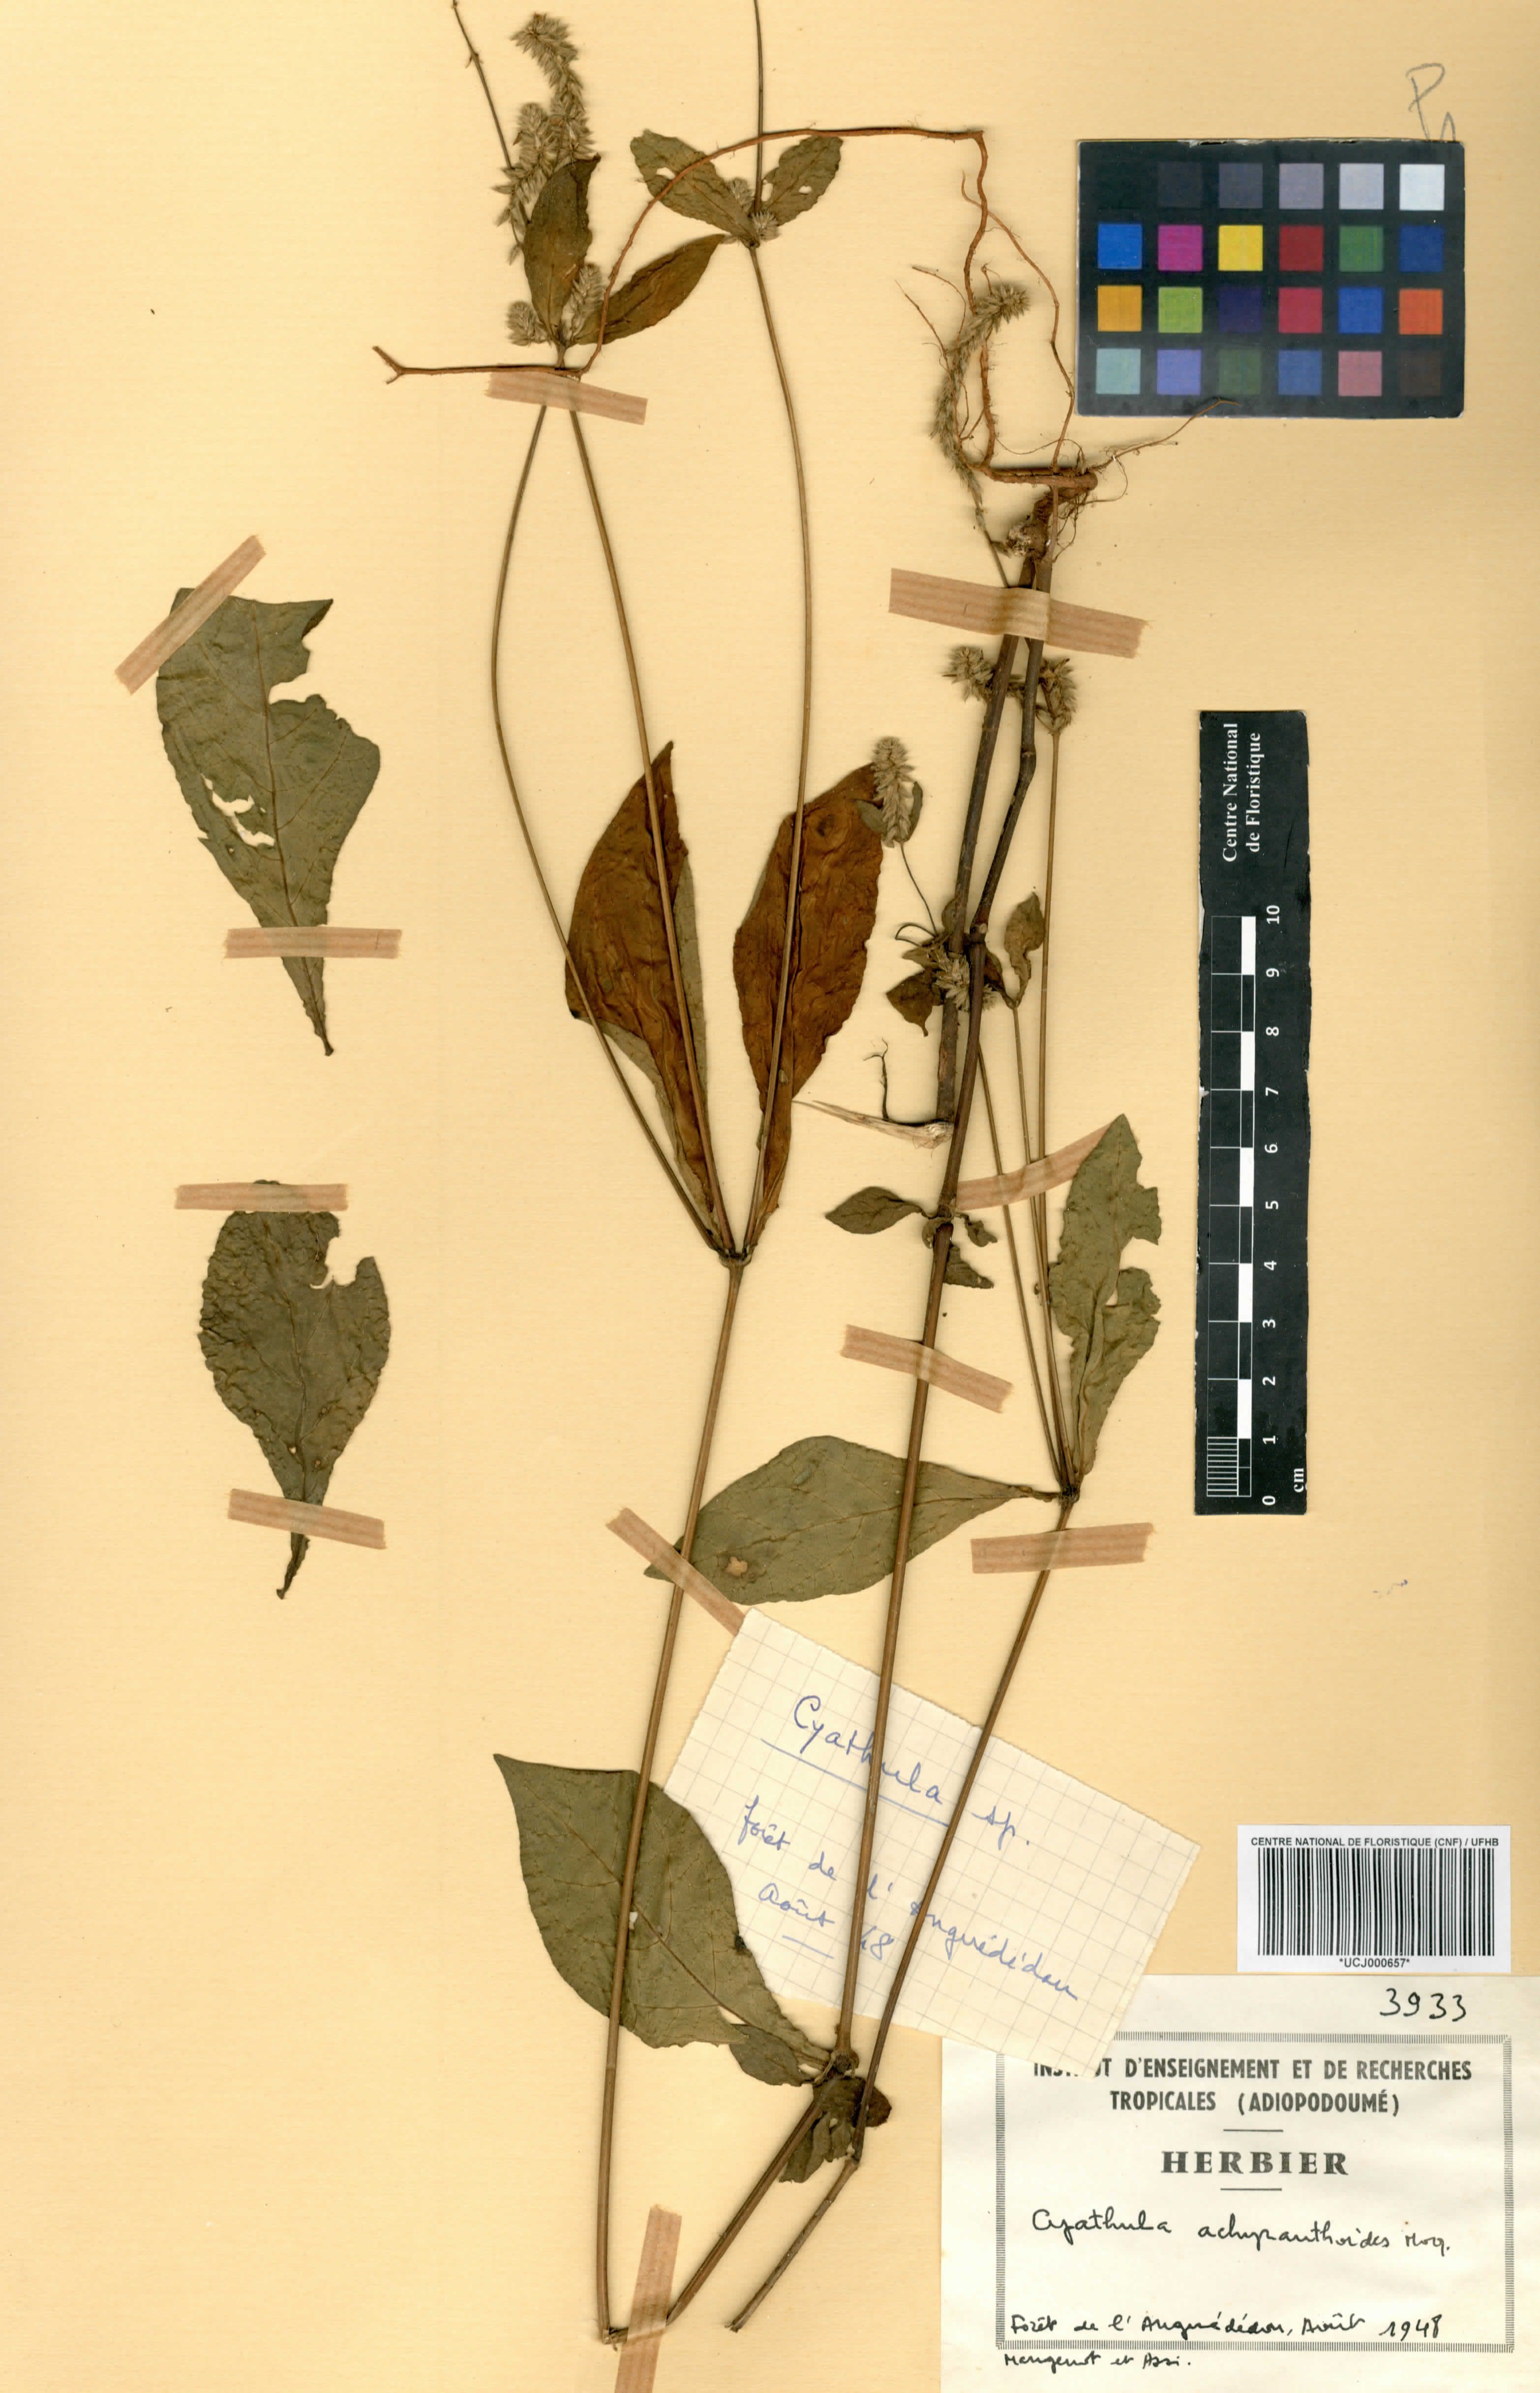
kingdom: Plantae
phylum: Tracheophyta
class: Magnoliopsida
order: Caryophyllales
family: Amaranthaceae
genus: Cyathula
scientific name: Cyathula achyranthoides
